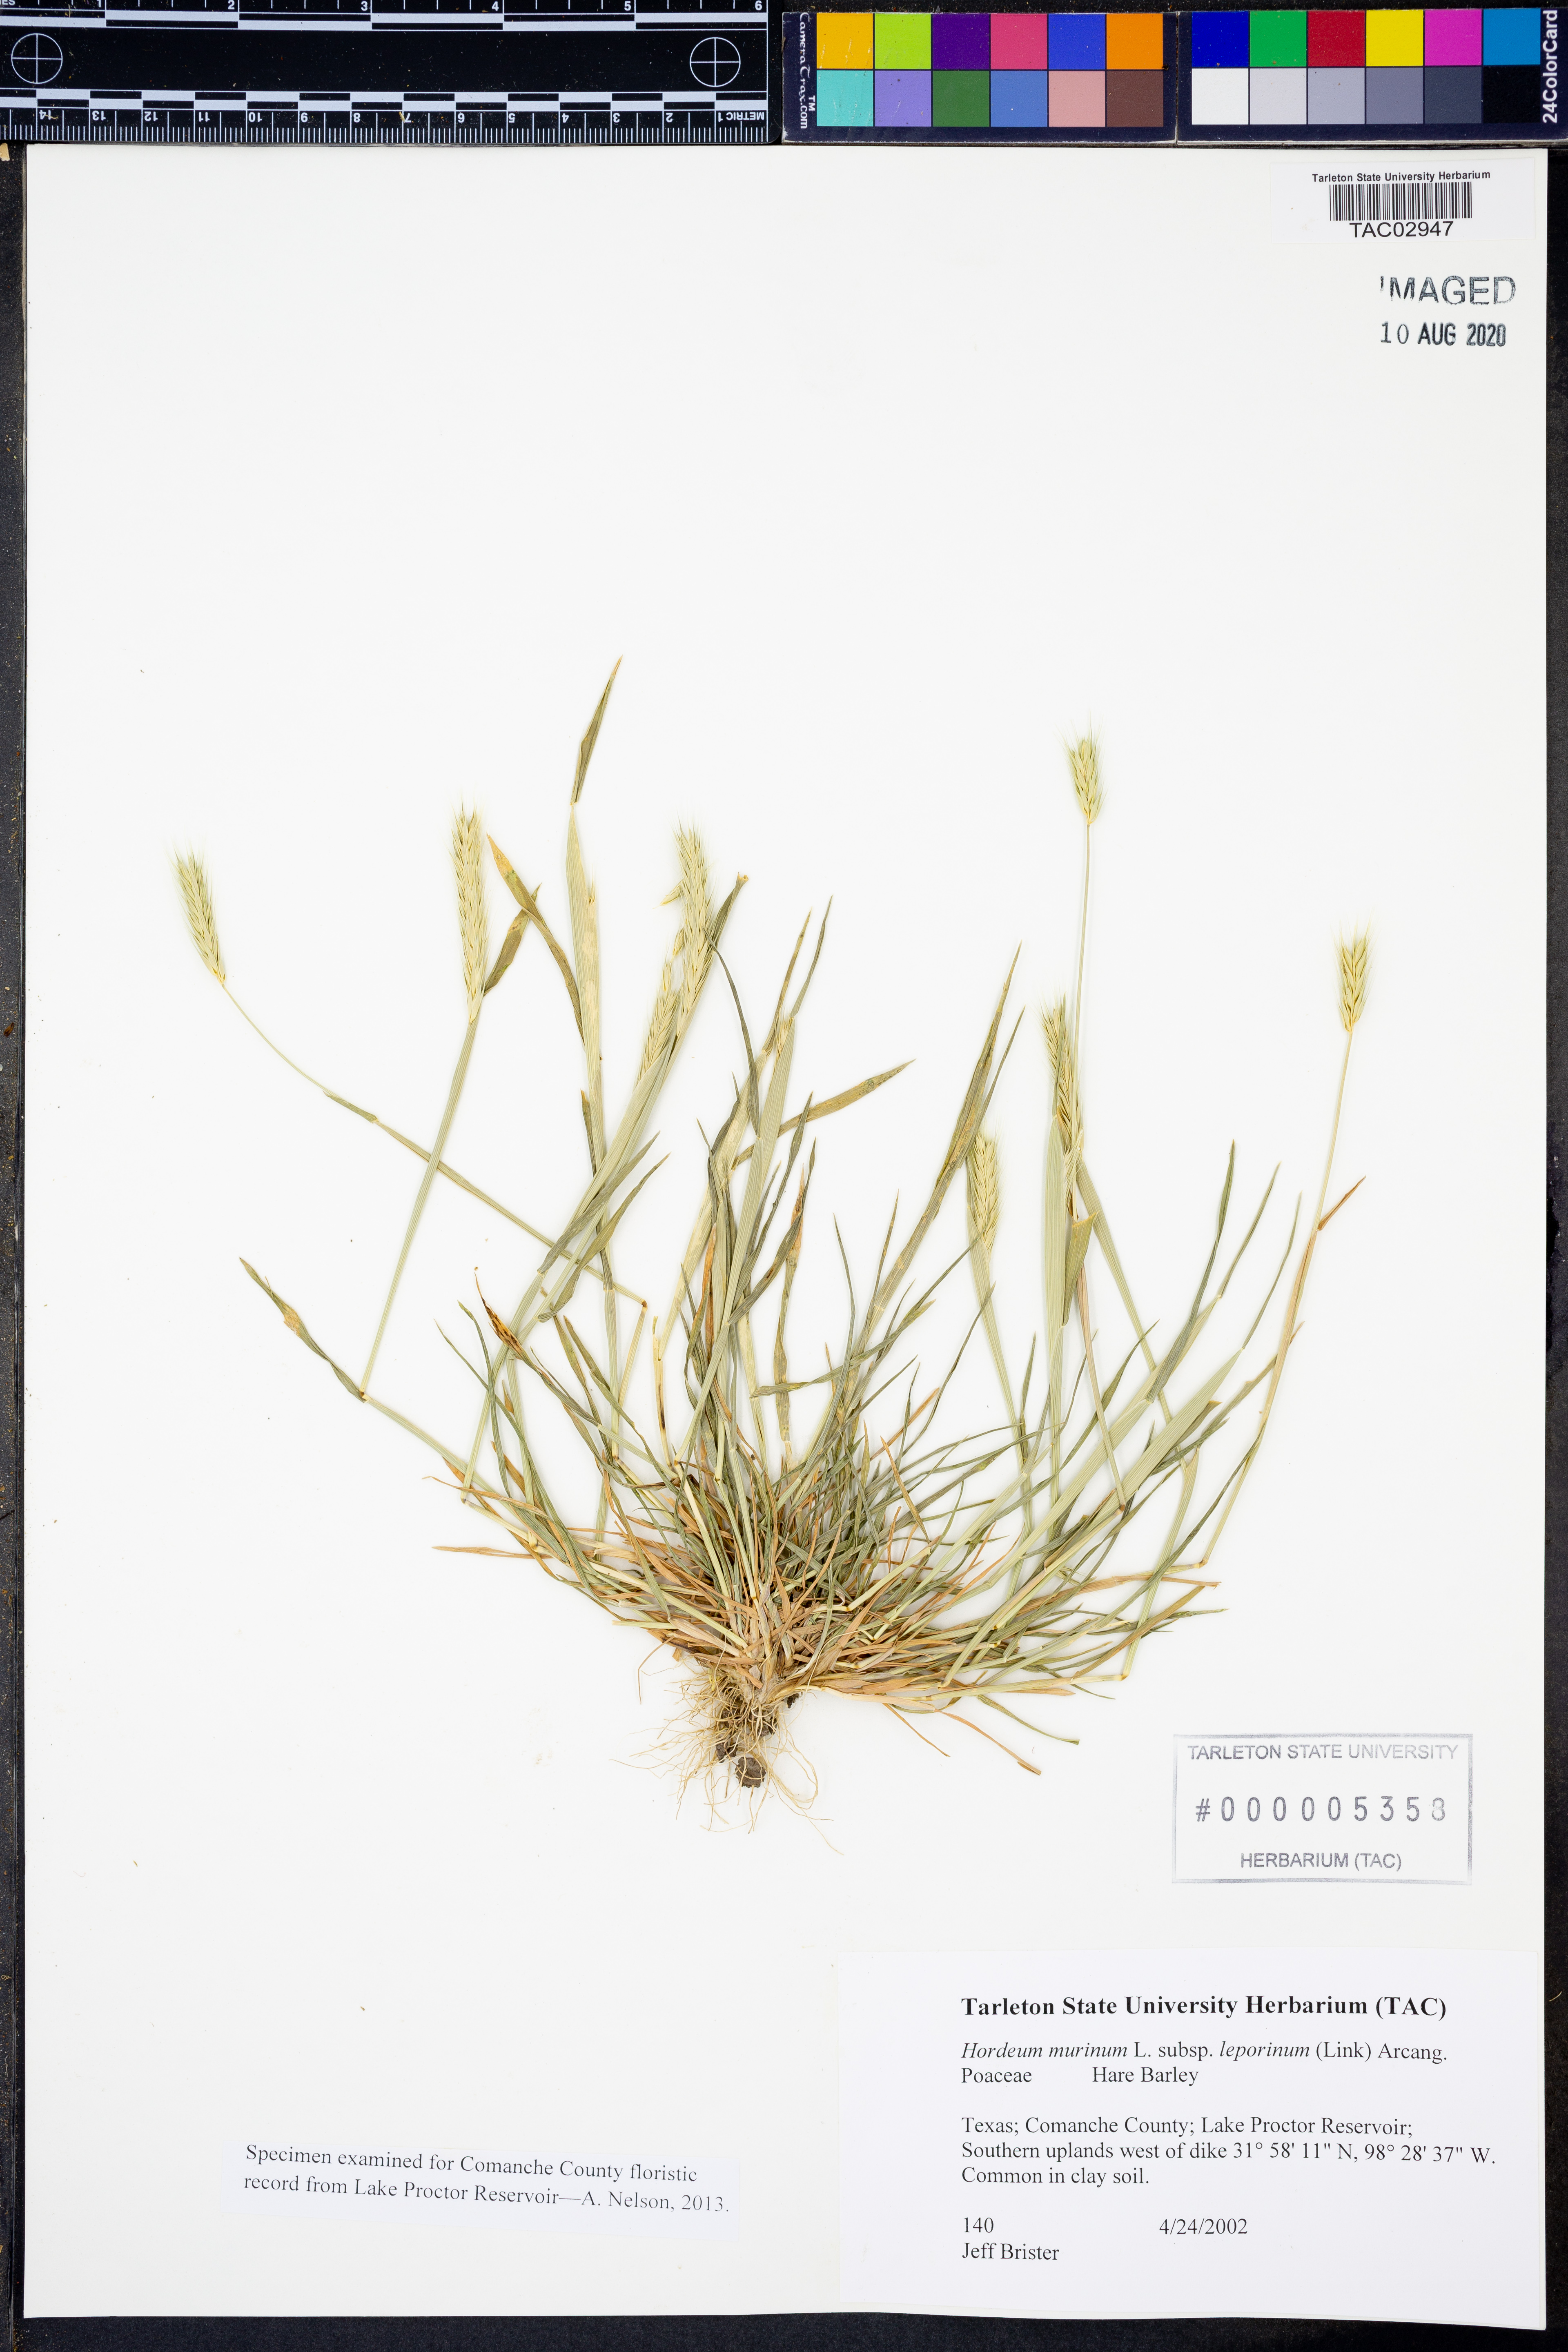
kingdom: Plantae
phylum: Tracheophyta
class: Liliopsida
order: Poales
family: Poaceae
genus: Hordeum
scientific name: Hordeum murinum
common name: Wall barley
